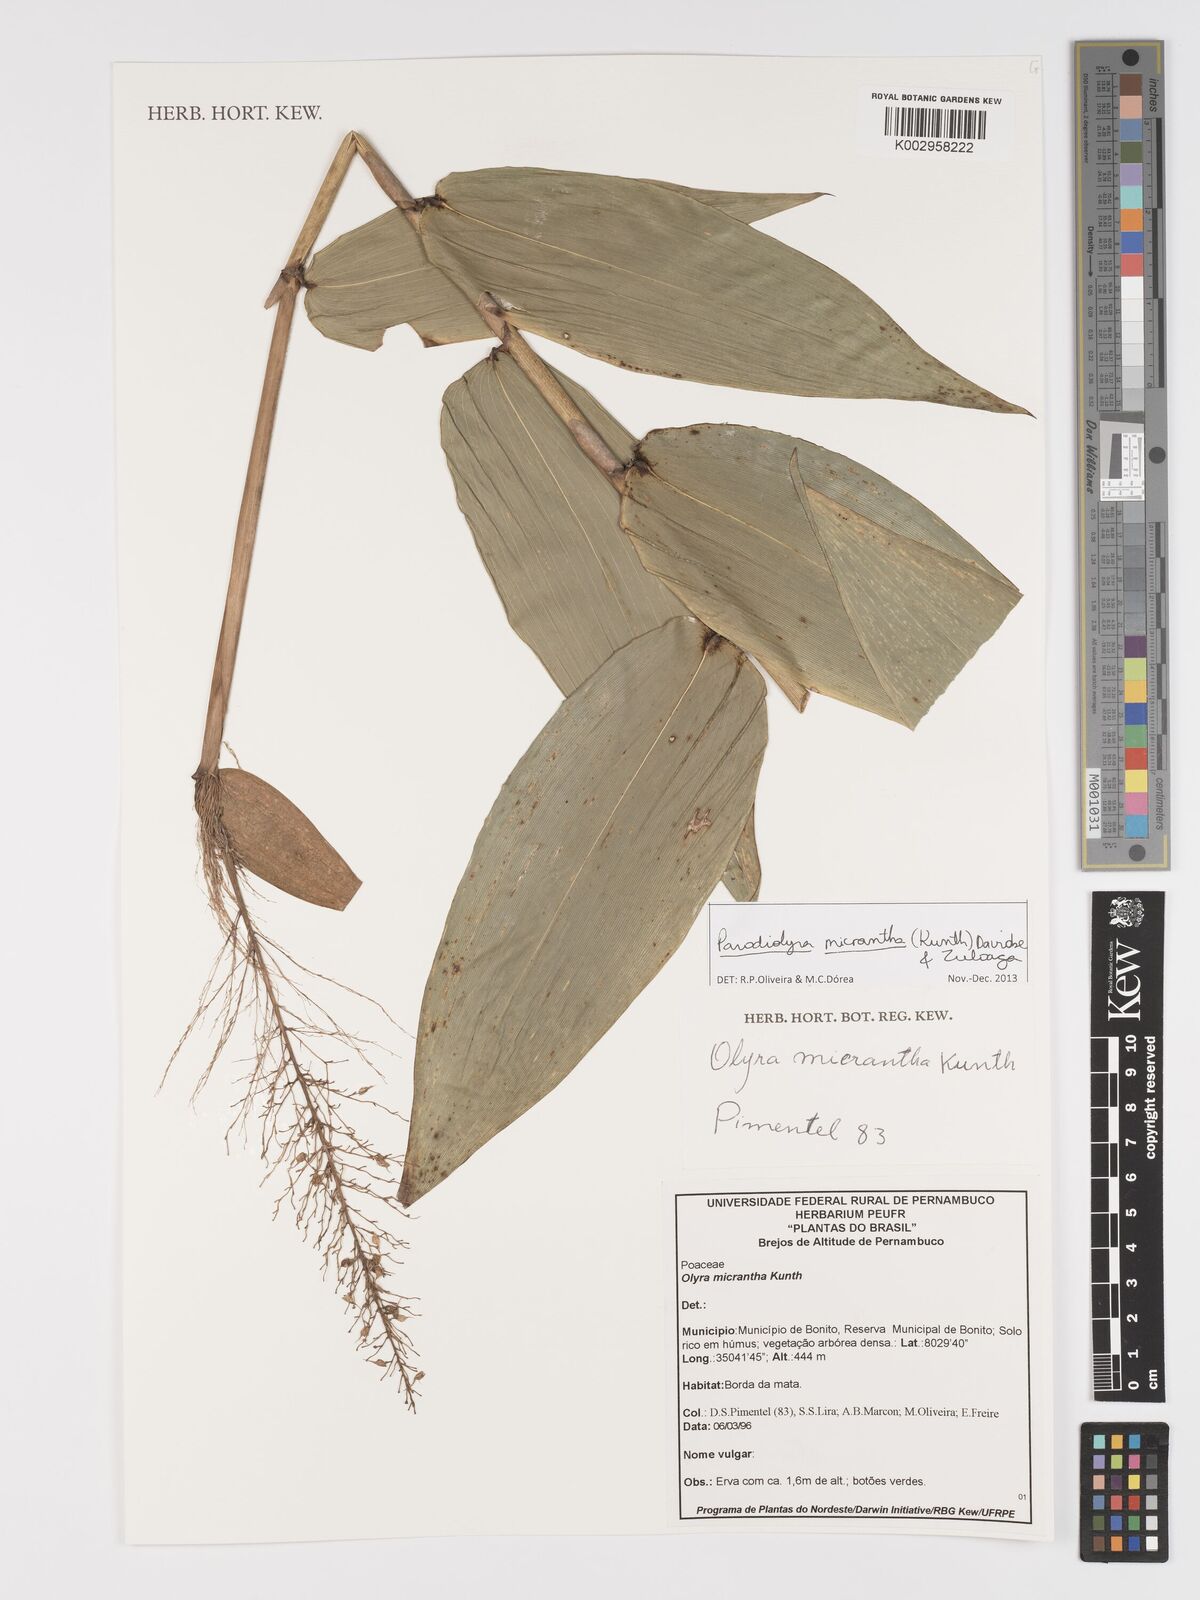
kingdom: Plantae
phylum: Tracheophyta
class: Liliopsida
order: Poales
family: Poaceae
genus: Taquara
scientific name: Taquara micrantha
